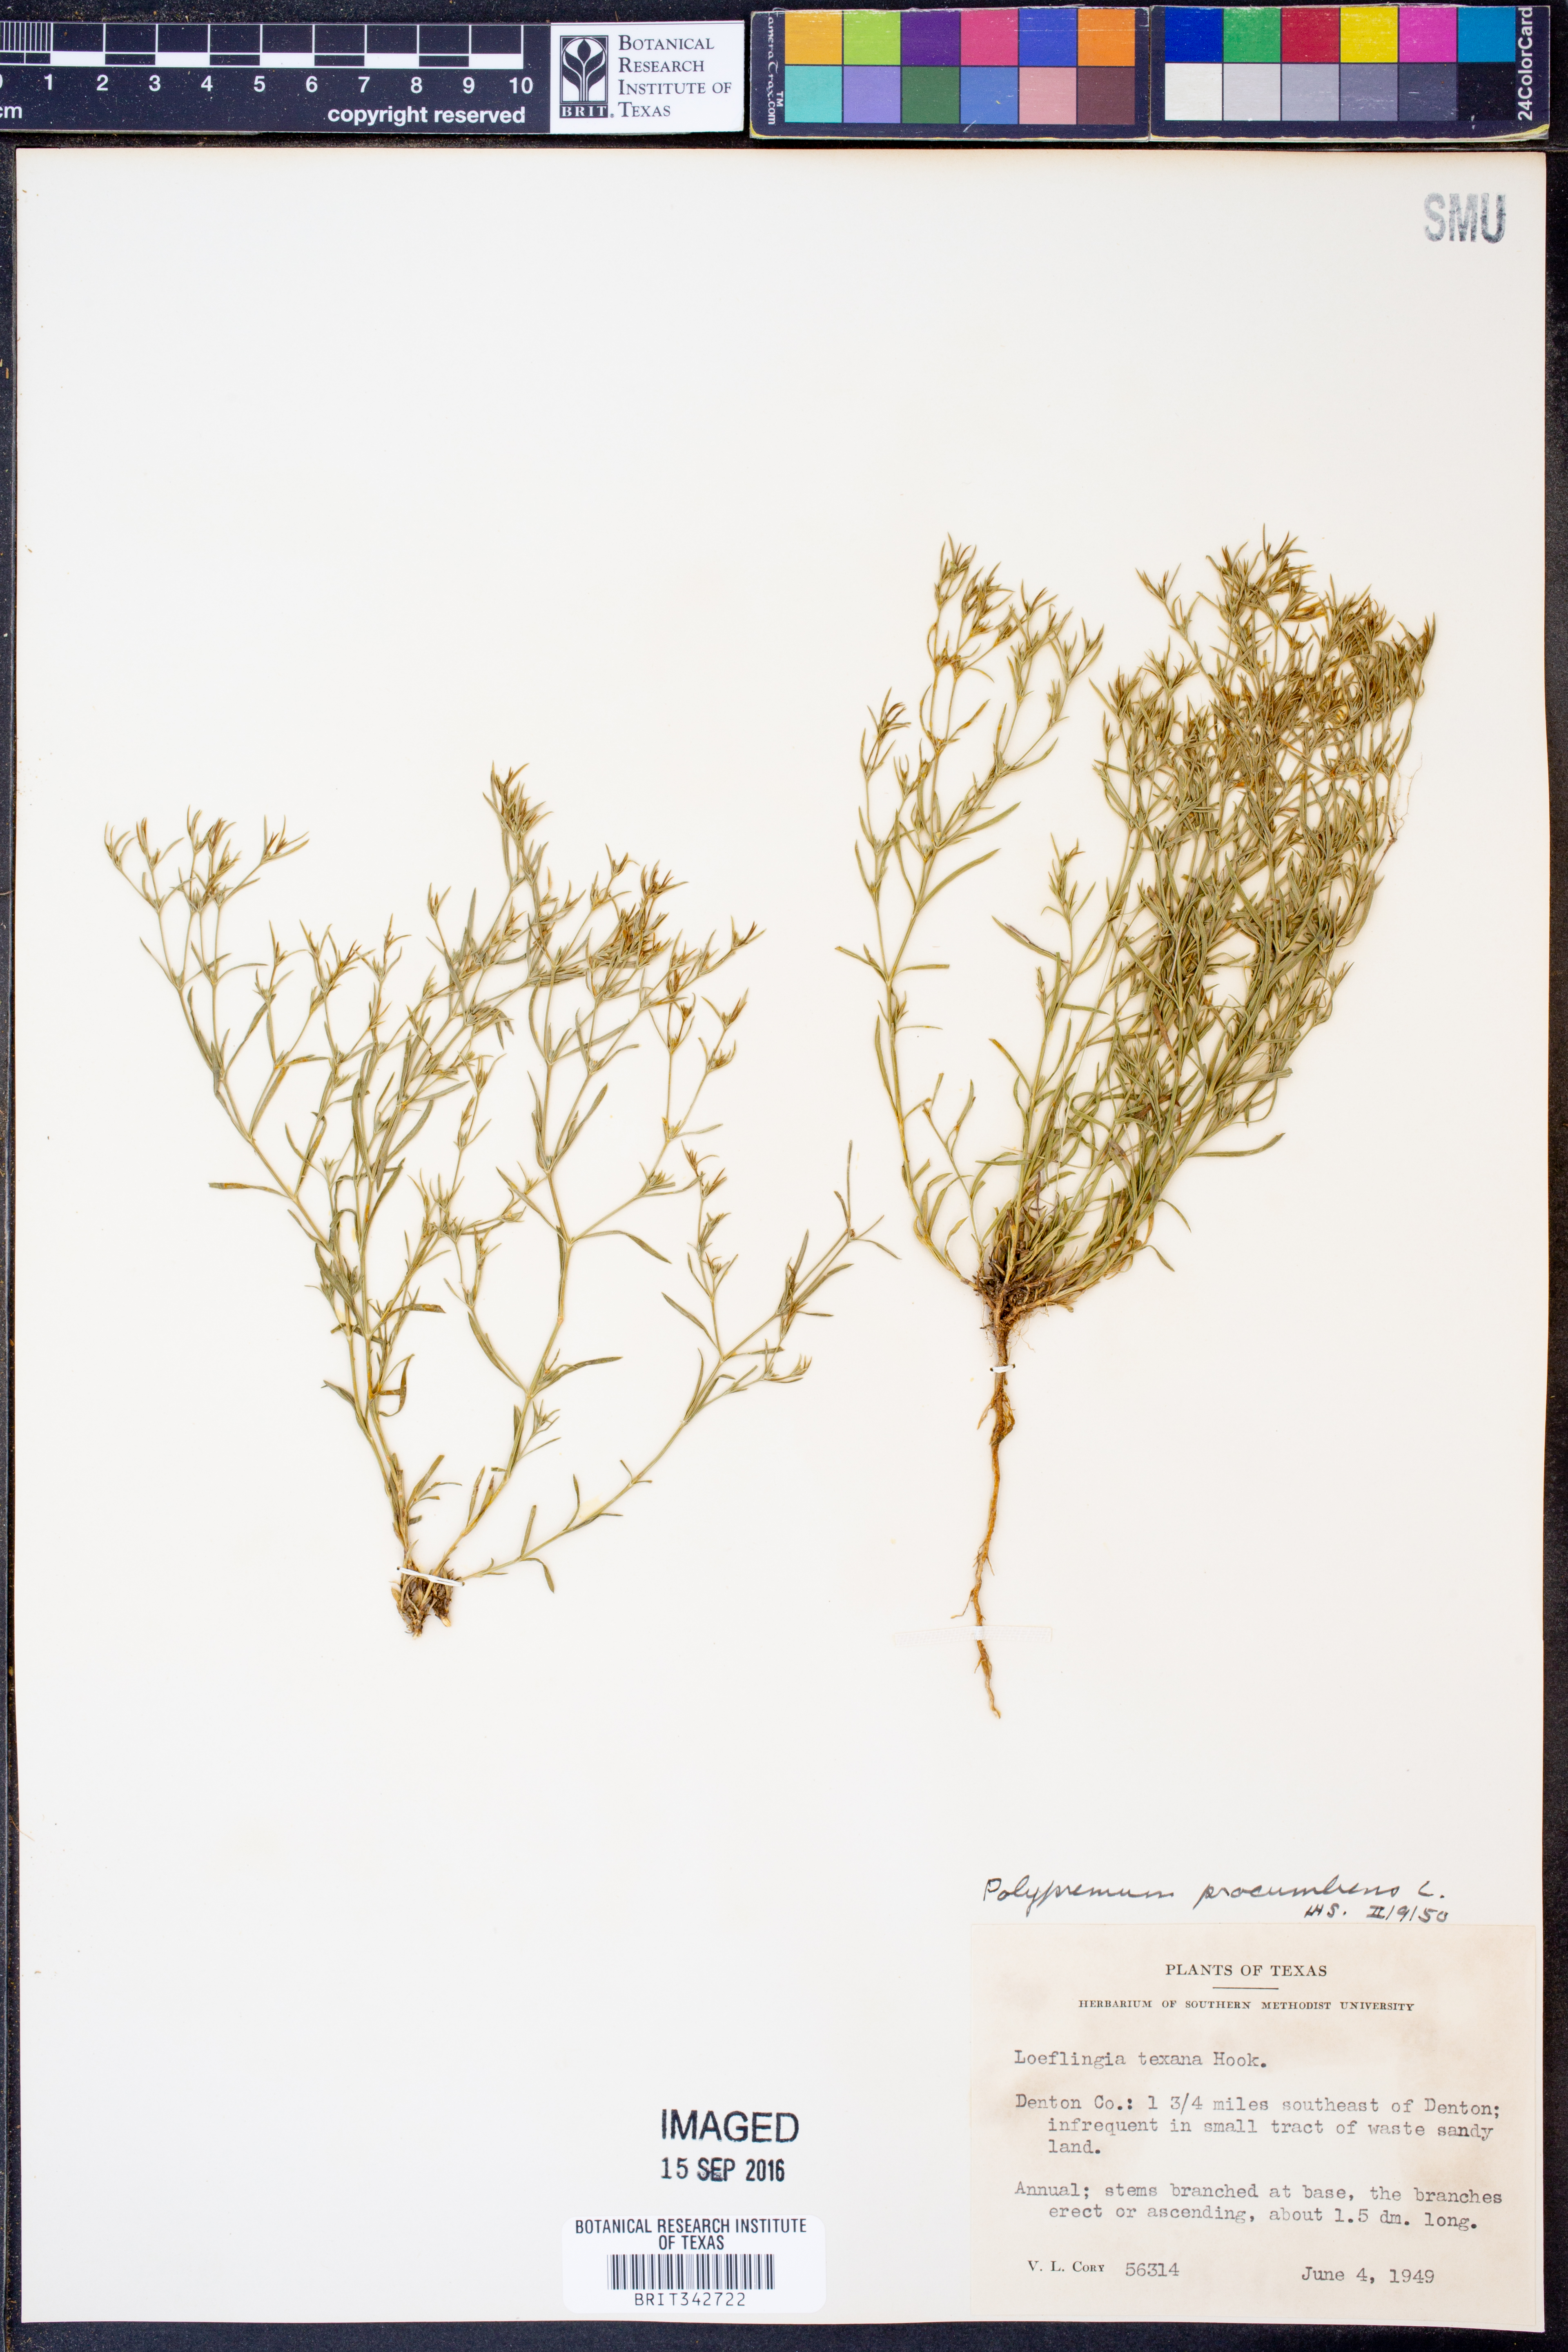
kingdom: Plantae
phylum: Tracheophyta
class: Magnoliopsida
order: Lamiales
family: Tetrachondraceae
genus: Polypremum
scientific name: Polypremum procumbens
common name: Juniper-leaf
